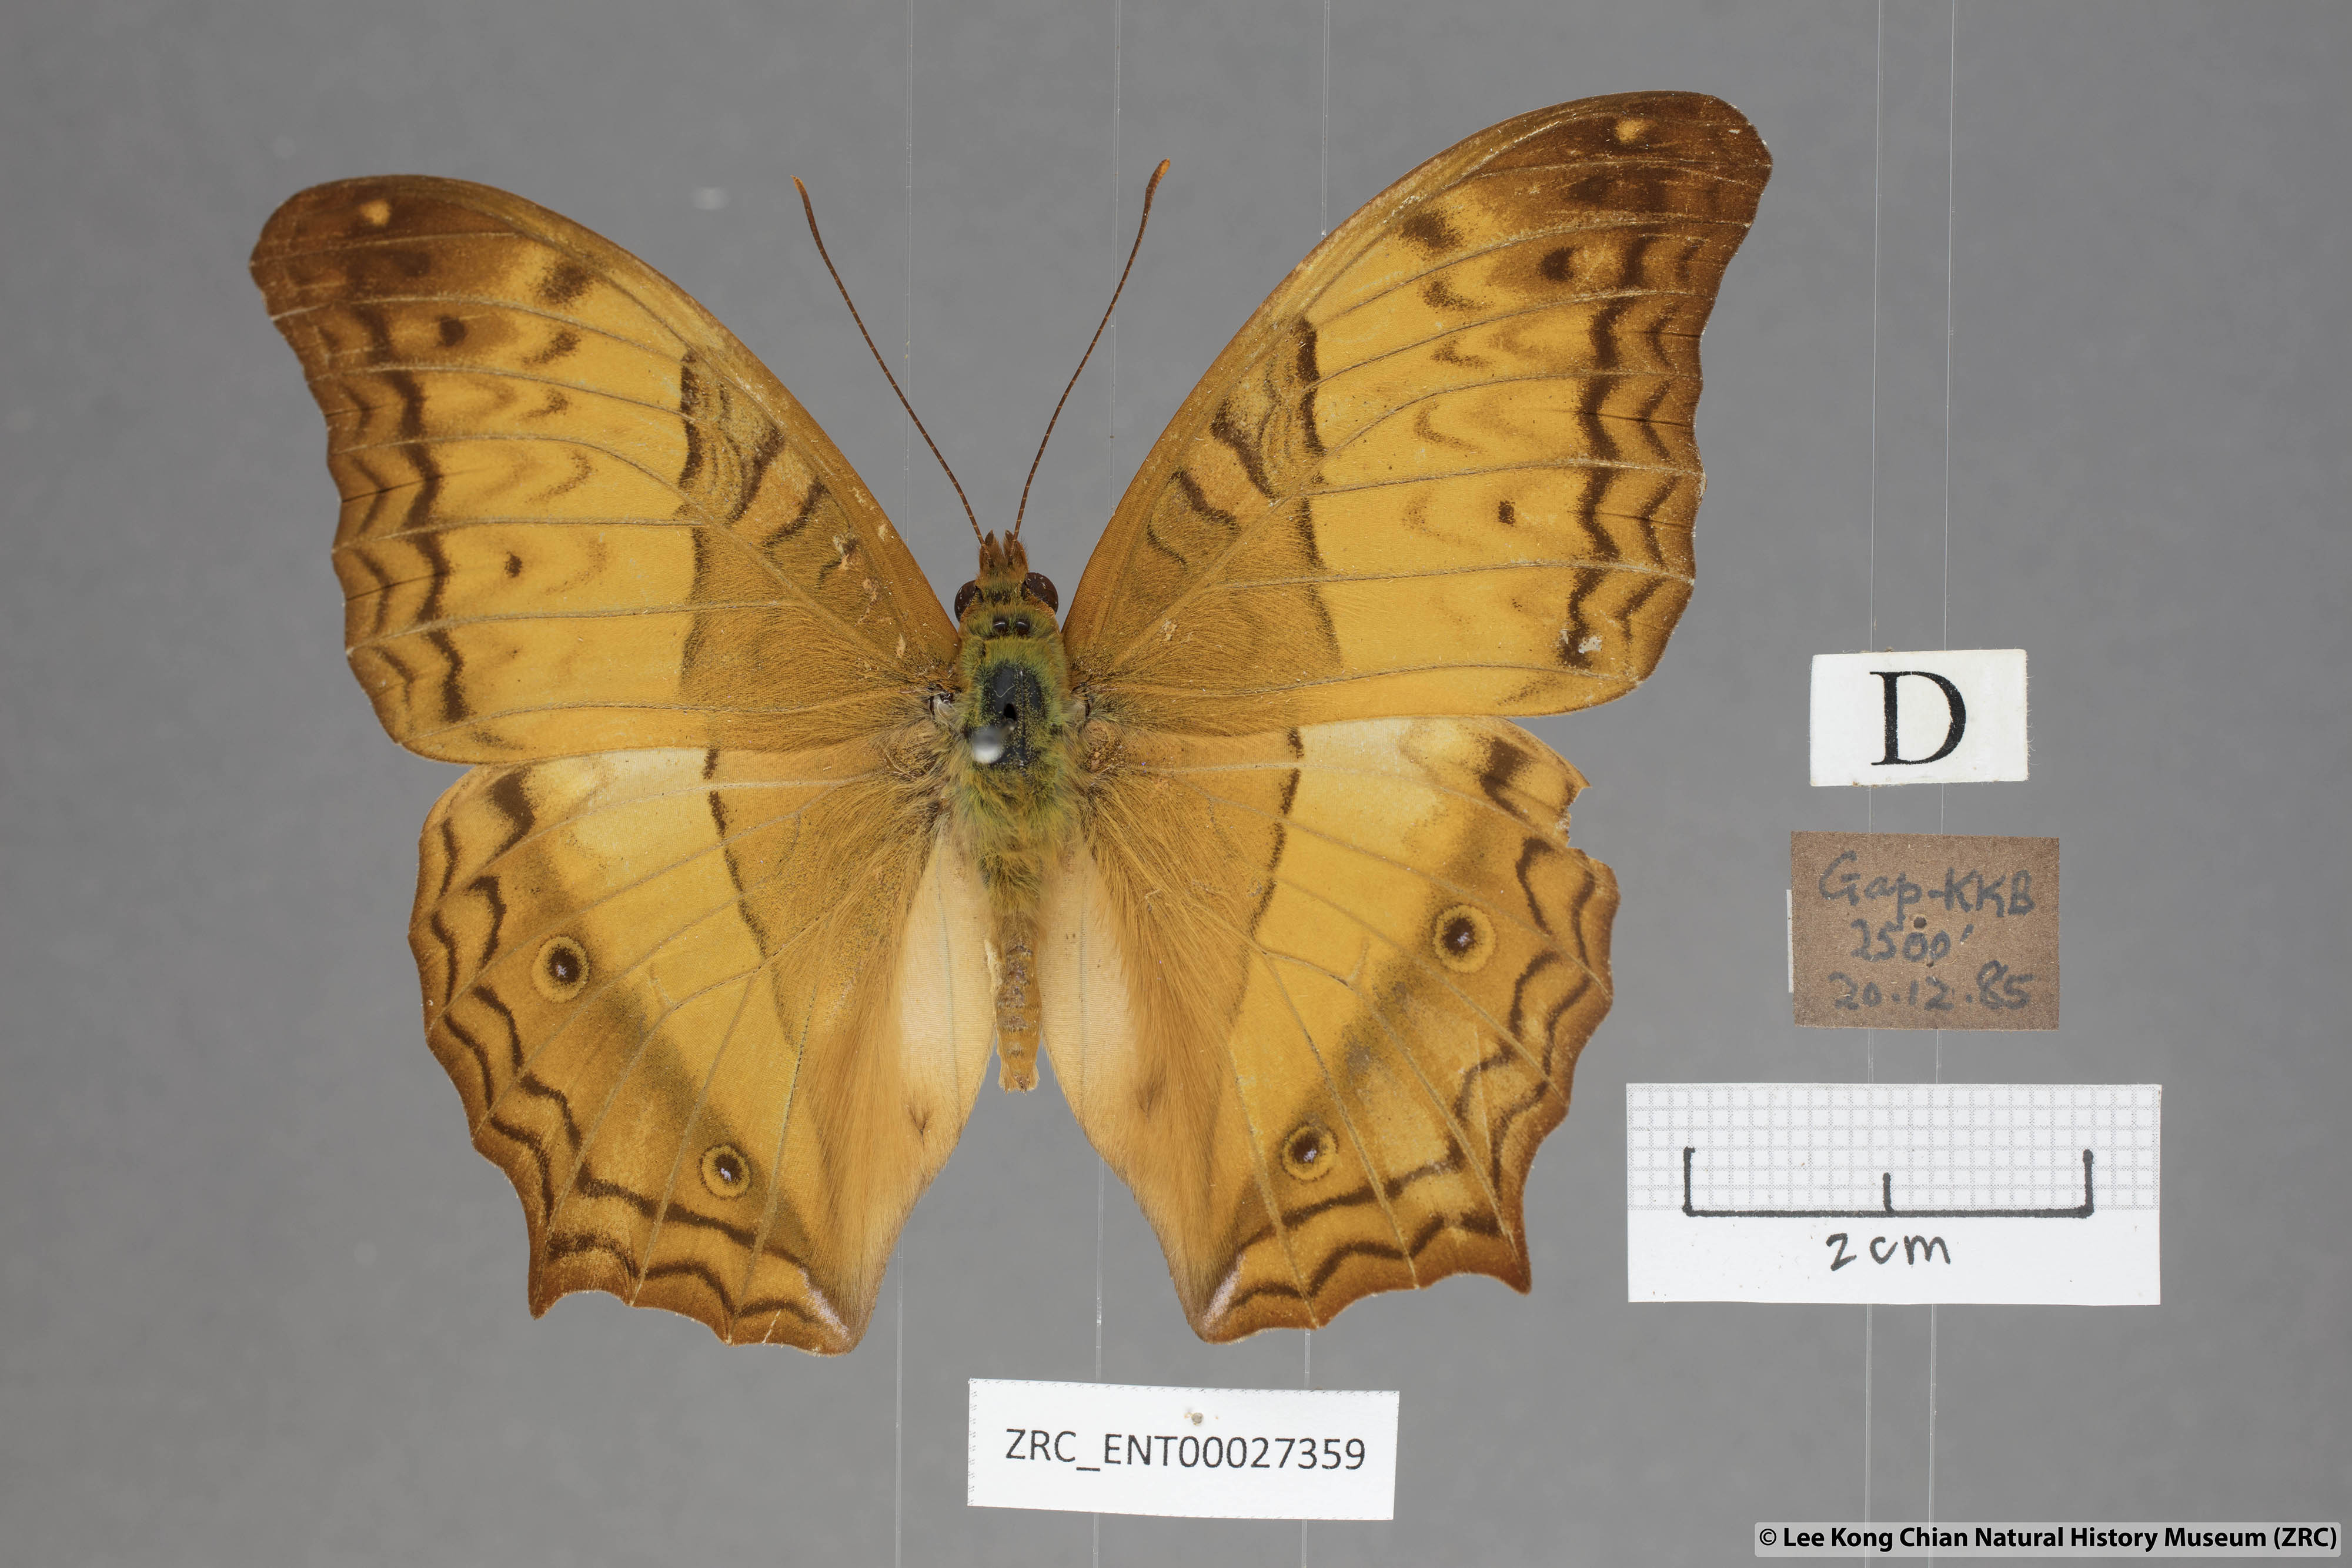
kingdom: Animalia
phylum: Arthropoda
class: Insecta
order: Lepidoptera
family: Nymphalidae
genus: Vindula
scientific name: Vindula erota
